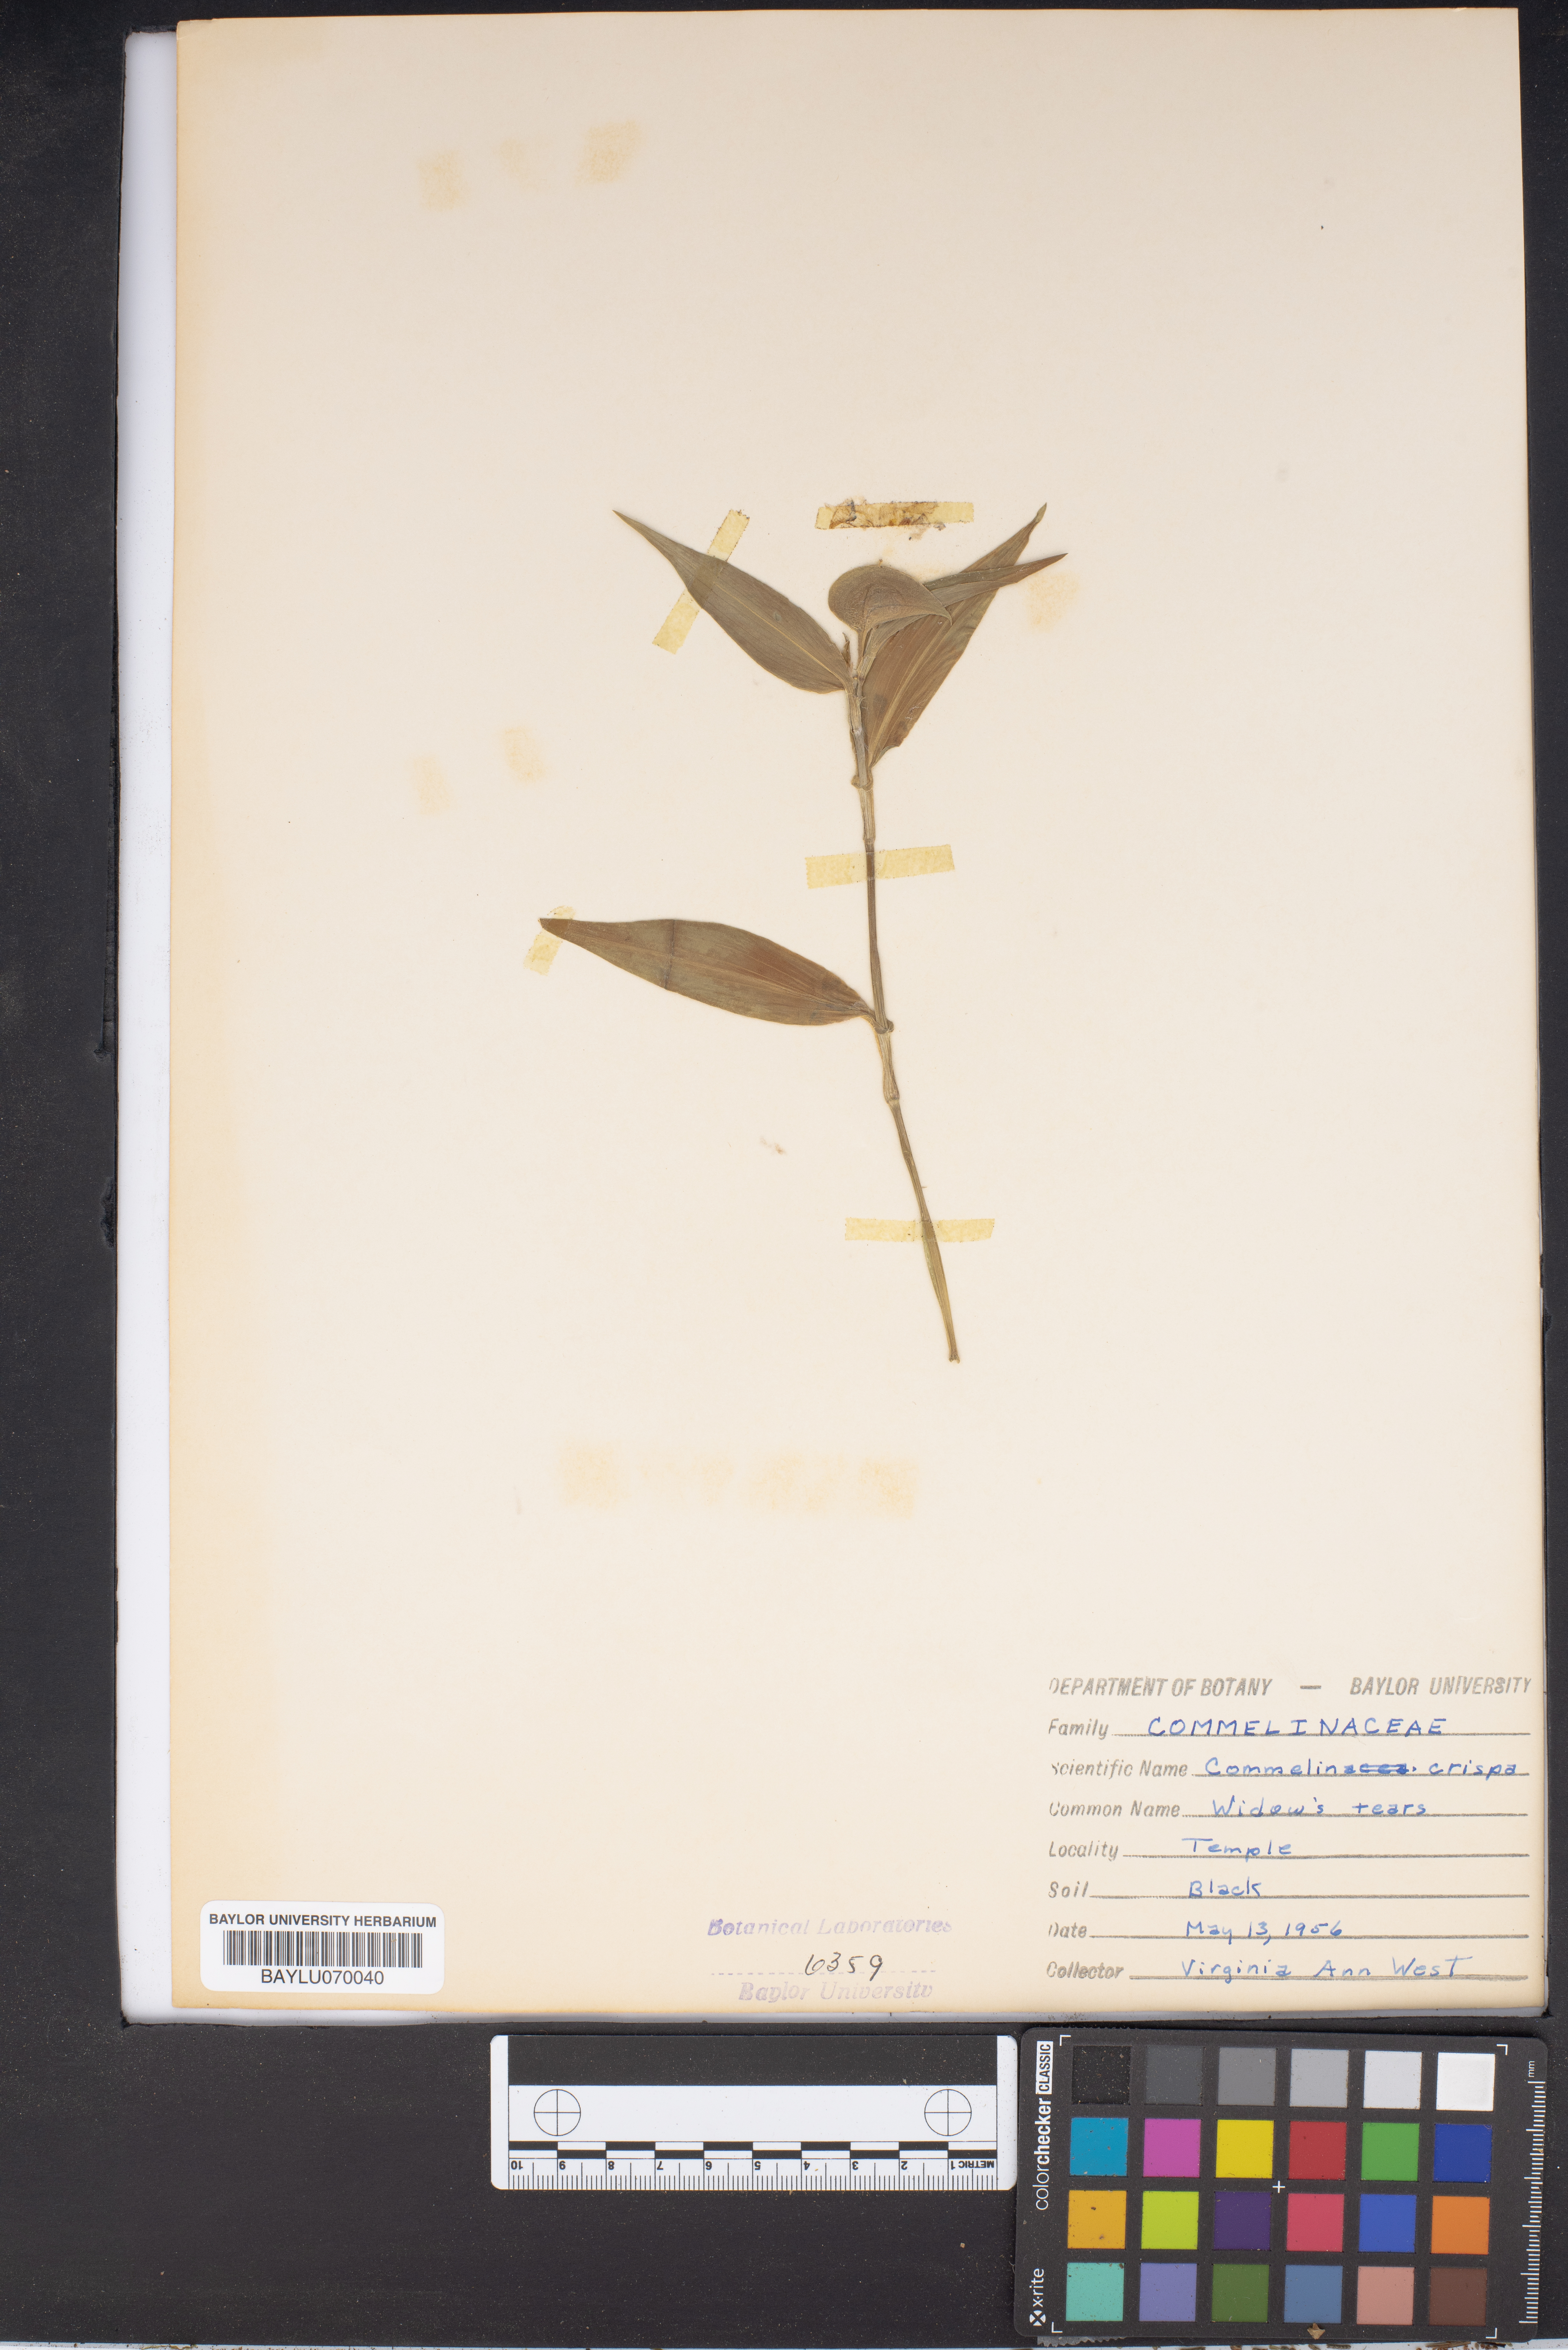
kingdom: Plantae
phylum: Tracheophyta
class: Liliopsida
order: Commelinales
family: Commelinaceae
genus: Commelina
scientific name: Commelina erecta
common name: Blousel blommetjie
